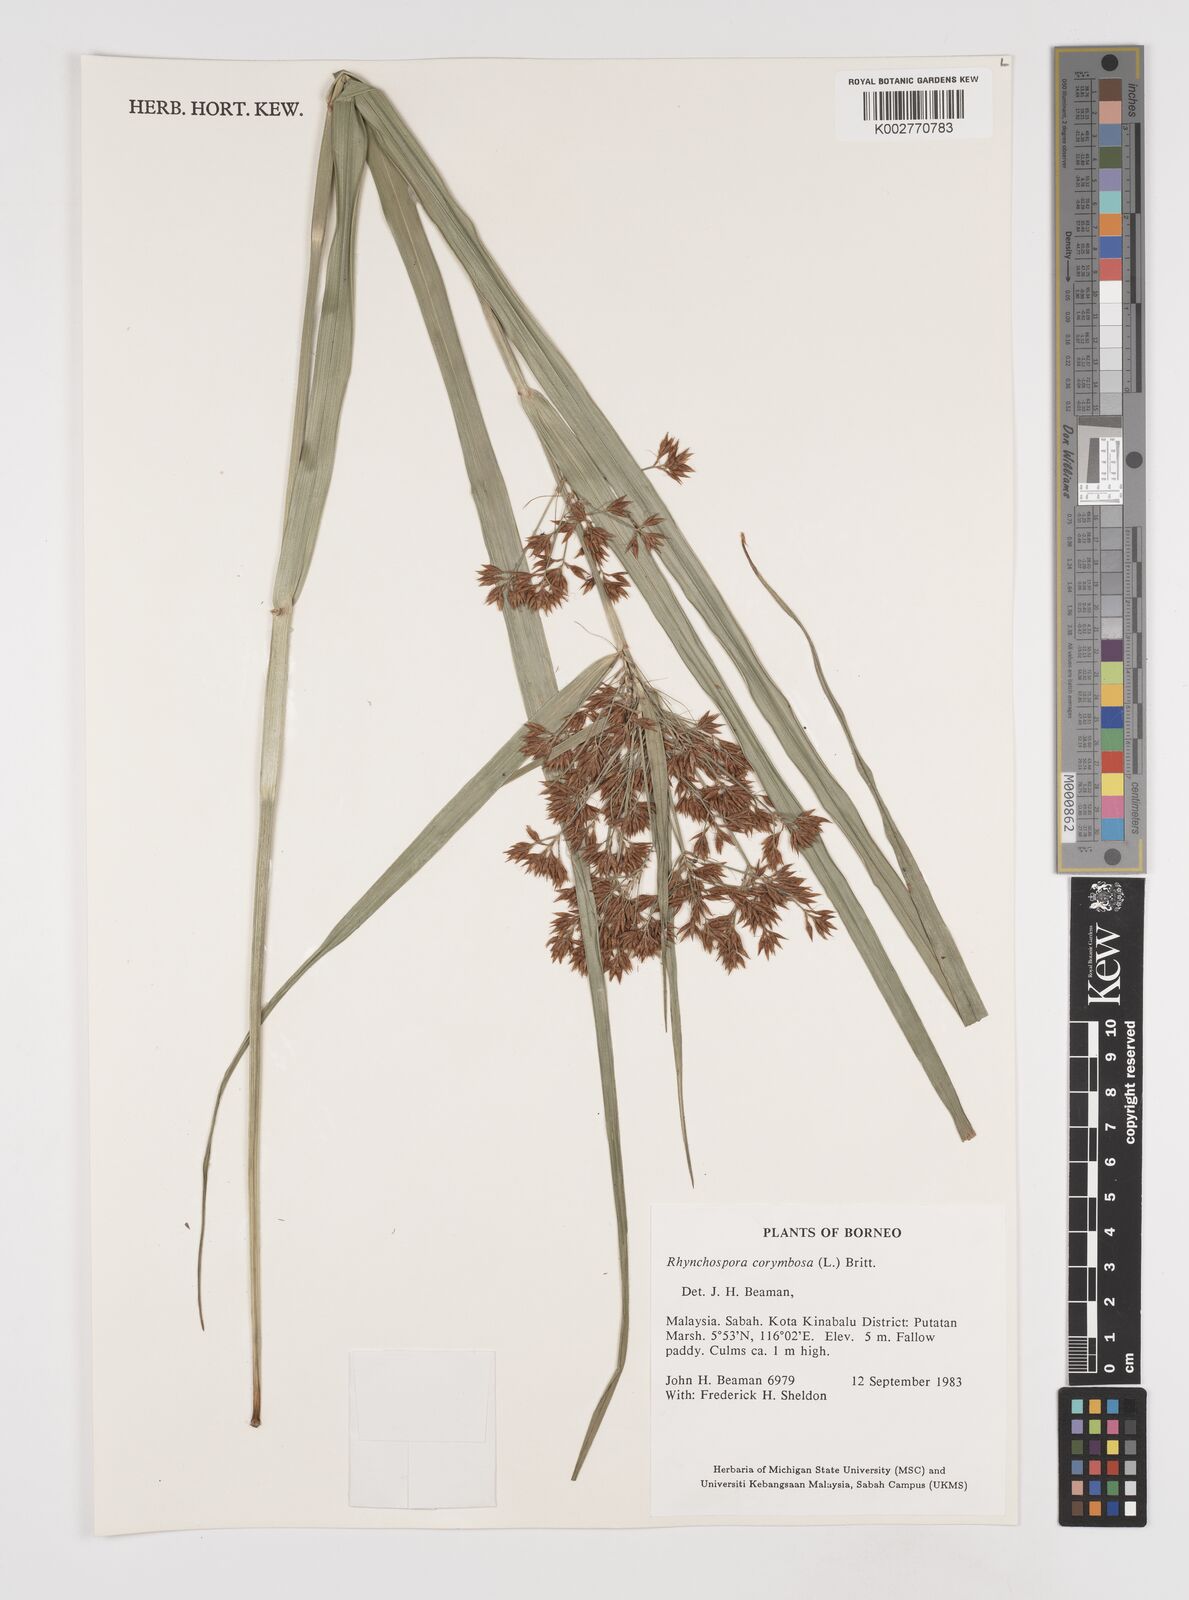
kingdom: Plantae
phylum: Tracheophyta
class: Liliopsida
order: Poales
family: Cyperaceae
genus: Rhynchospora
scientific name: Rhynchospora corymbosa
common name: Golden beak sedge
